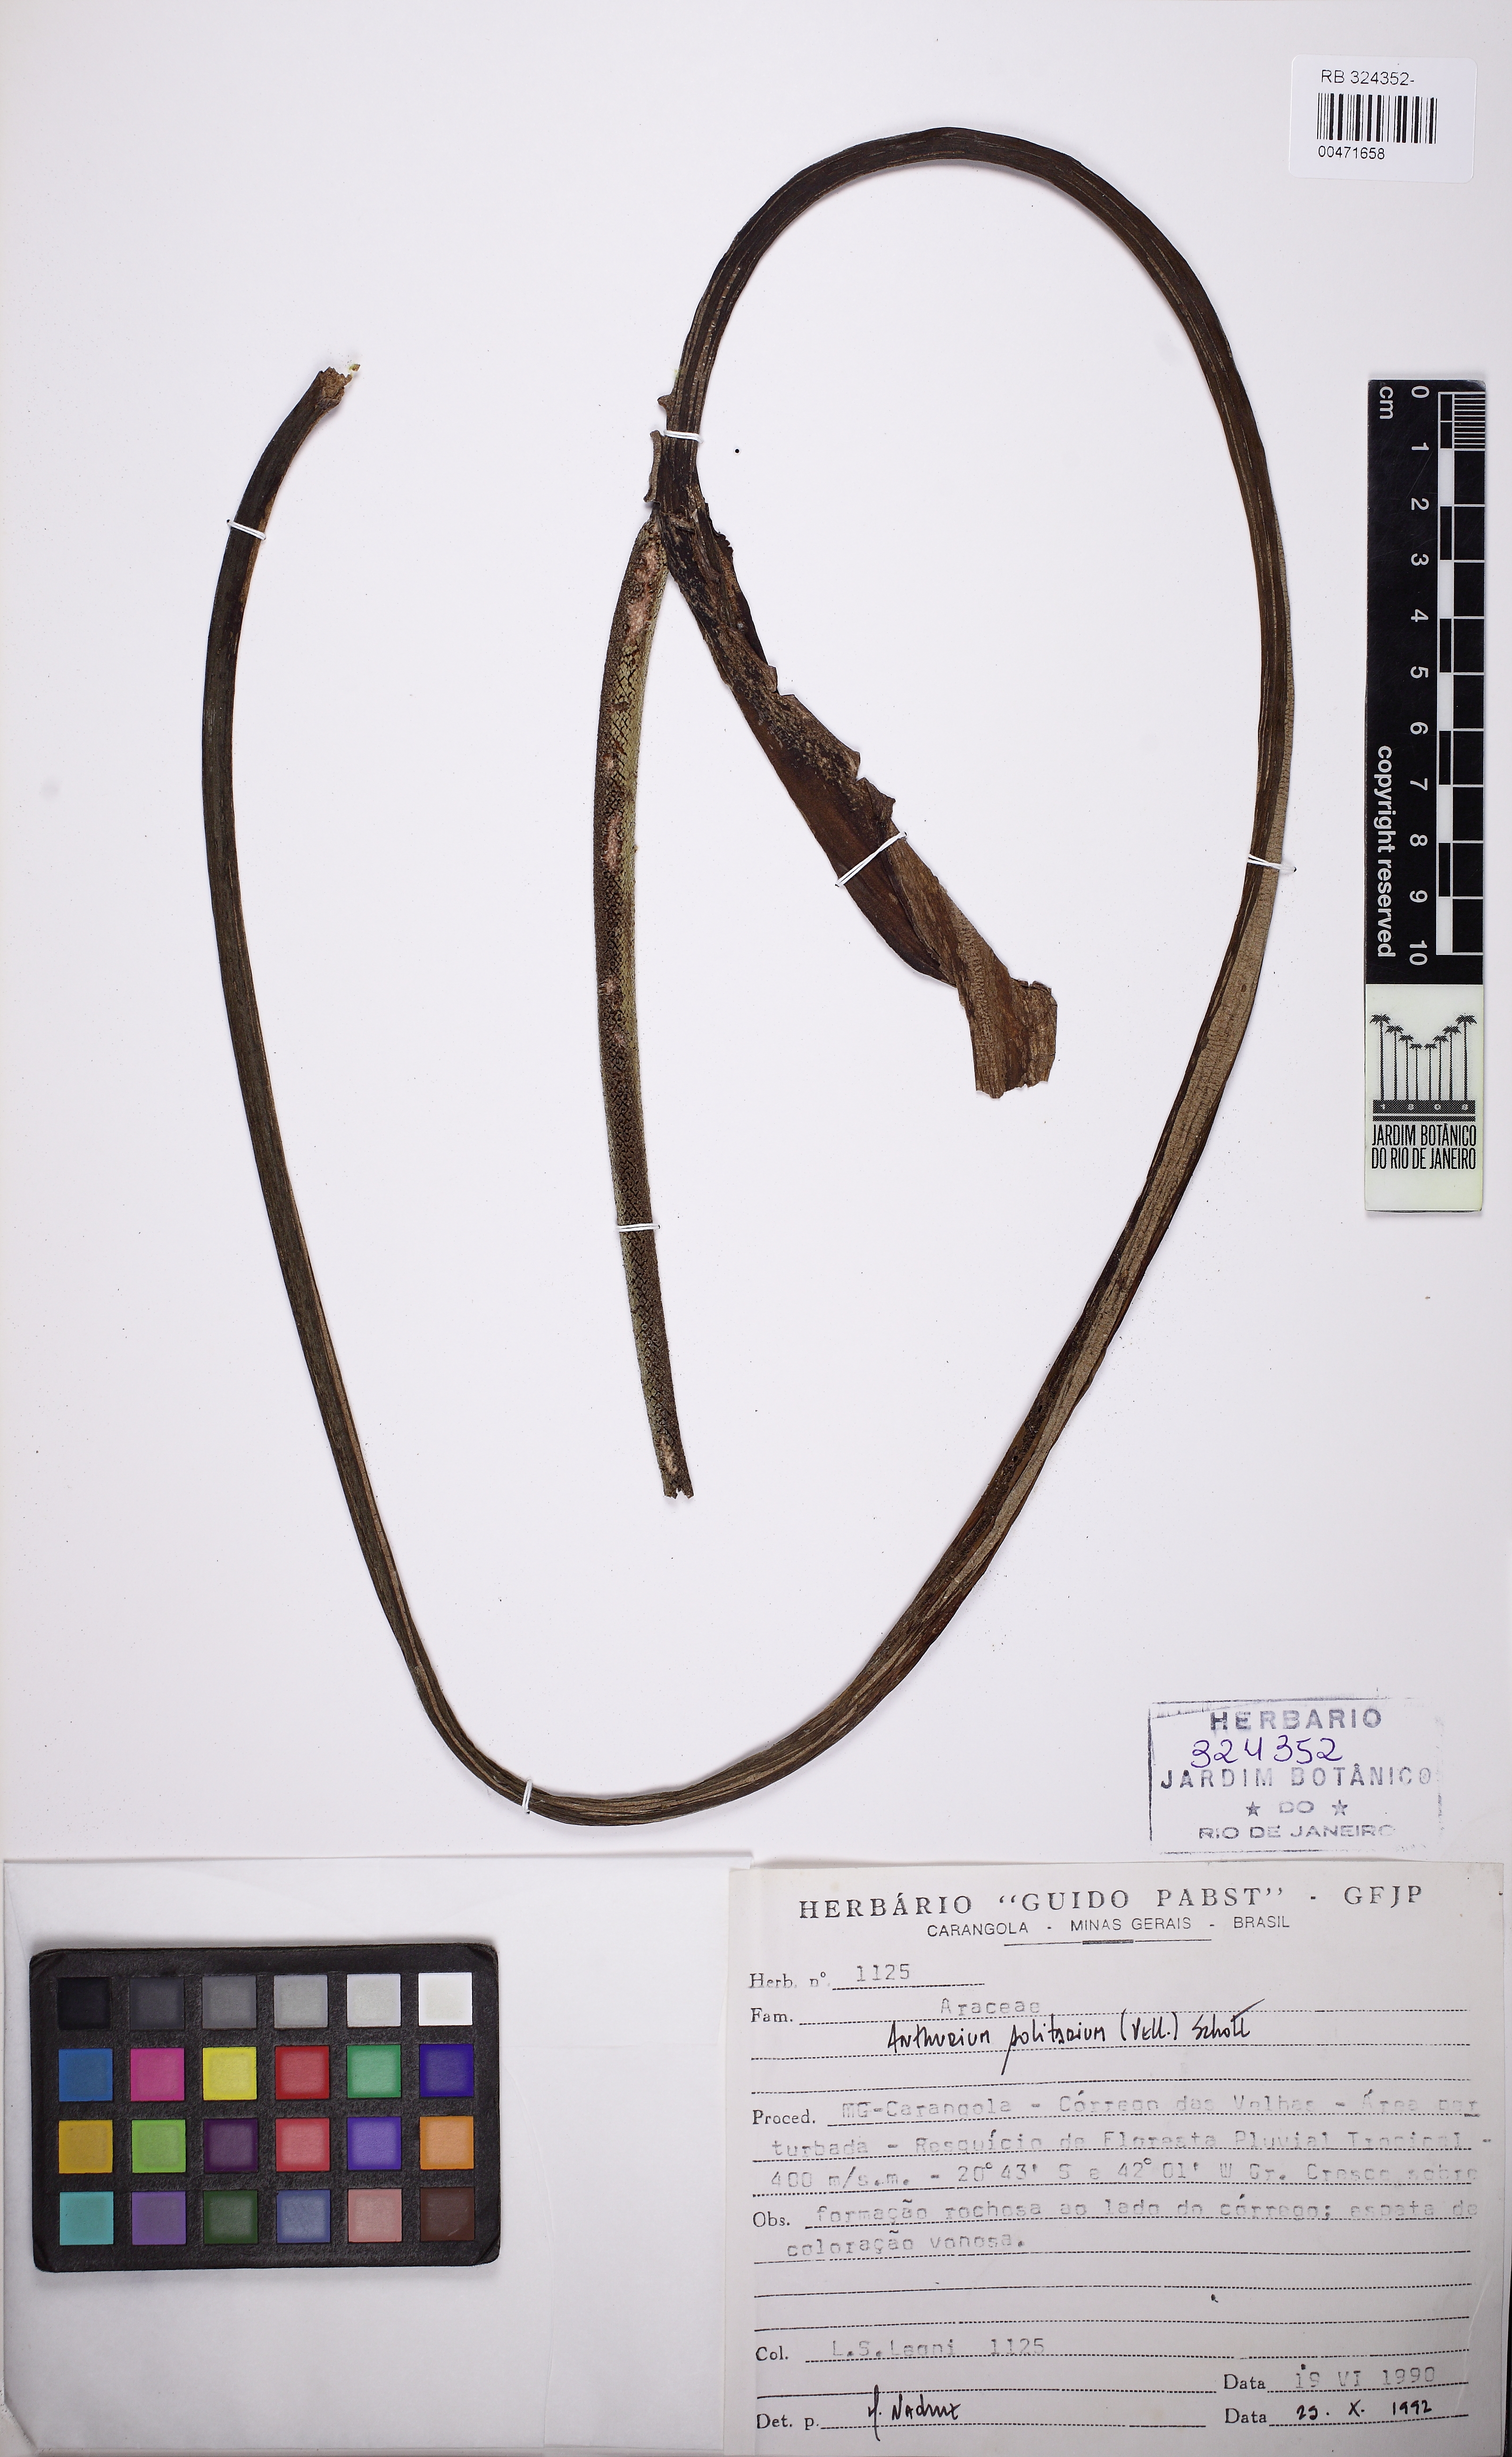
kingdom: Plantae
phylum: Tracheophyta
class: Liliopsida
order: Alismatales
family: Araceae
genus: Anthurium
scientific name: Anthurium solitarium
